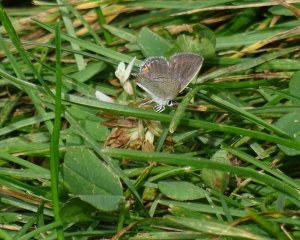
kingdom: Animalia
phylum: Arthropoda
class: Insecta
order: Lepidoptera
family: Lycaenidae
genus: Elkalyce
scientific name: Elkalyce comyntas
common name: Eastern Tailed-Blue
